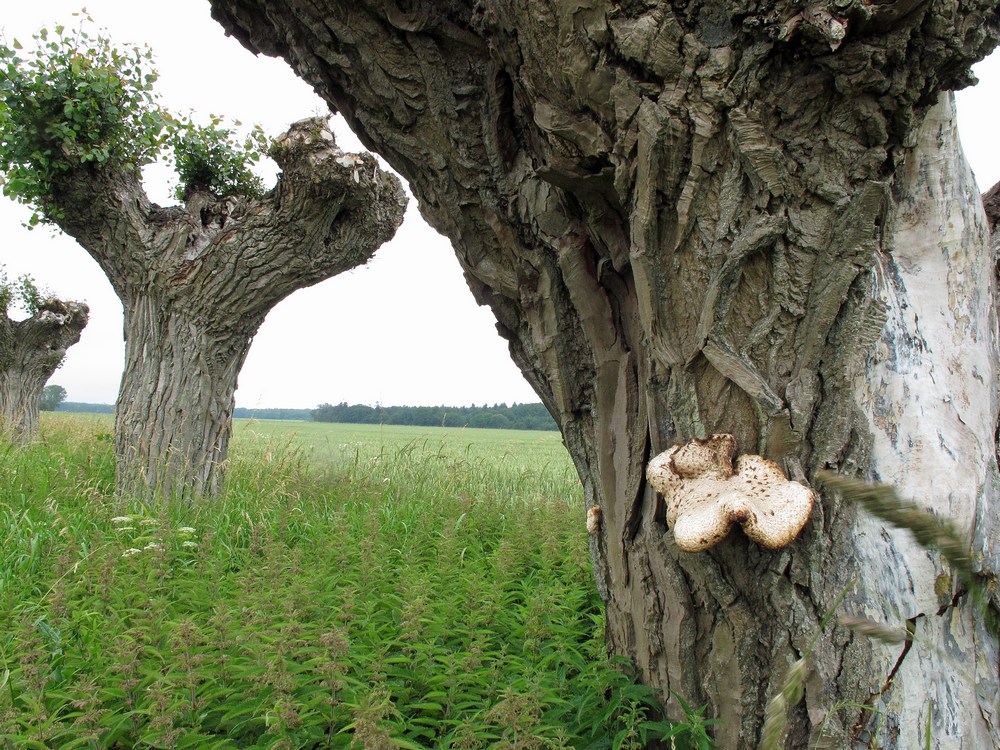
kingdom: Fungi
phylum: Basidiomycota
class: Agaricomycetes
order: Polyporales
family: Polyporaceae
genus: Cerioporus
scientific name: Cerioporus squamosus
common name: skællet stilkporesvamp
